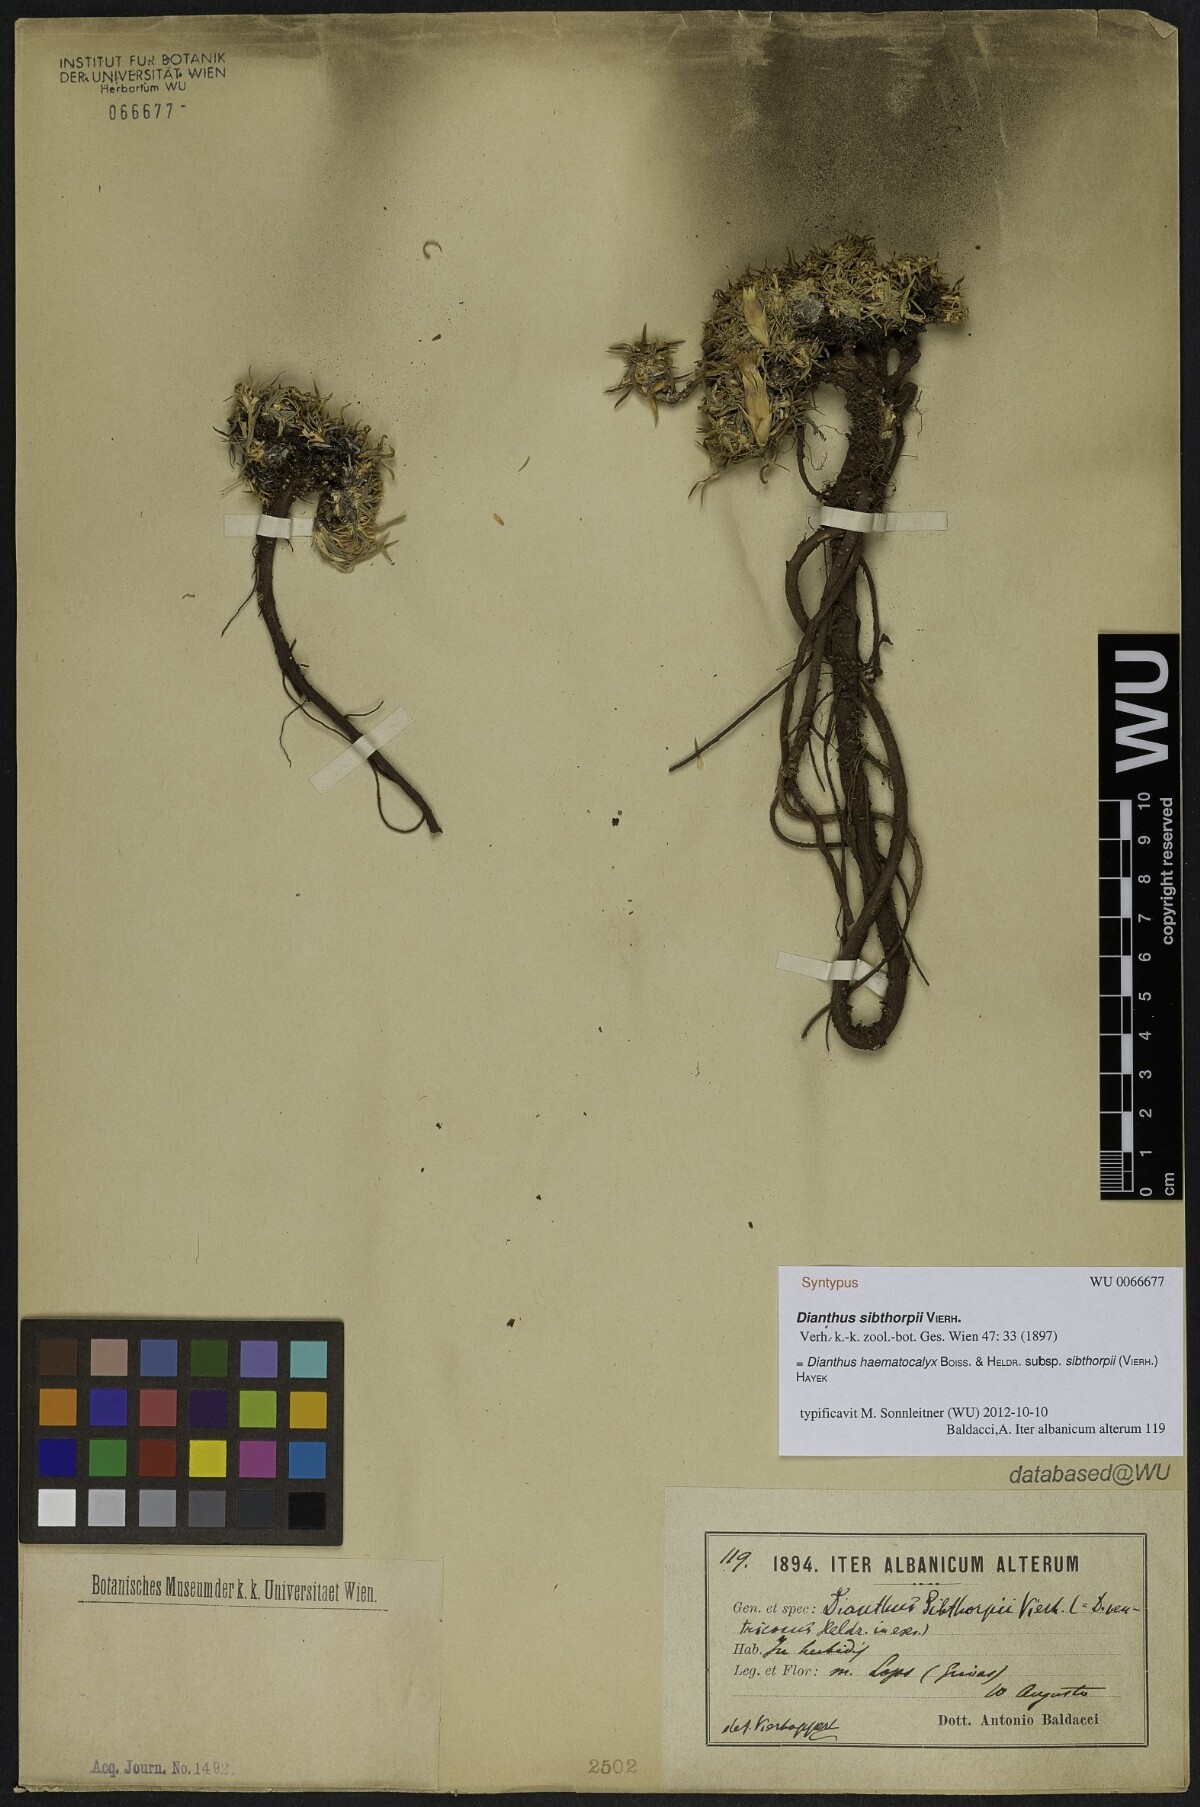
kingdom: Plantae
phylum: Tracheophyta
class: Magnoliopsida
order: Caryophyllales
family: Caryophyllaceae
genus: Dianthus
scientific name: Dianthus haematocalyx
